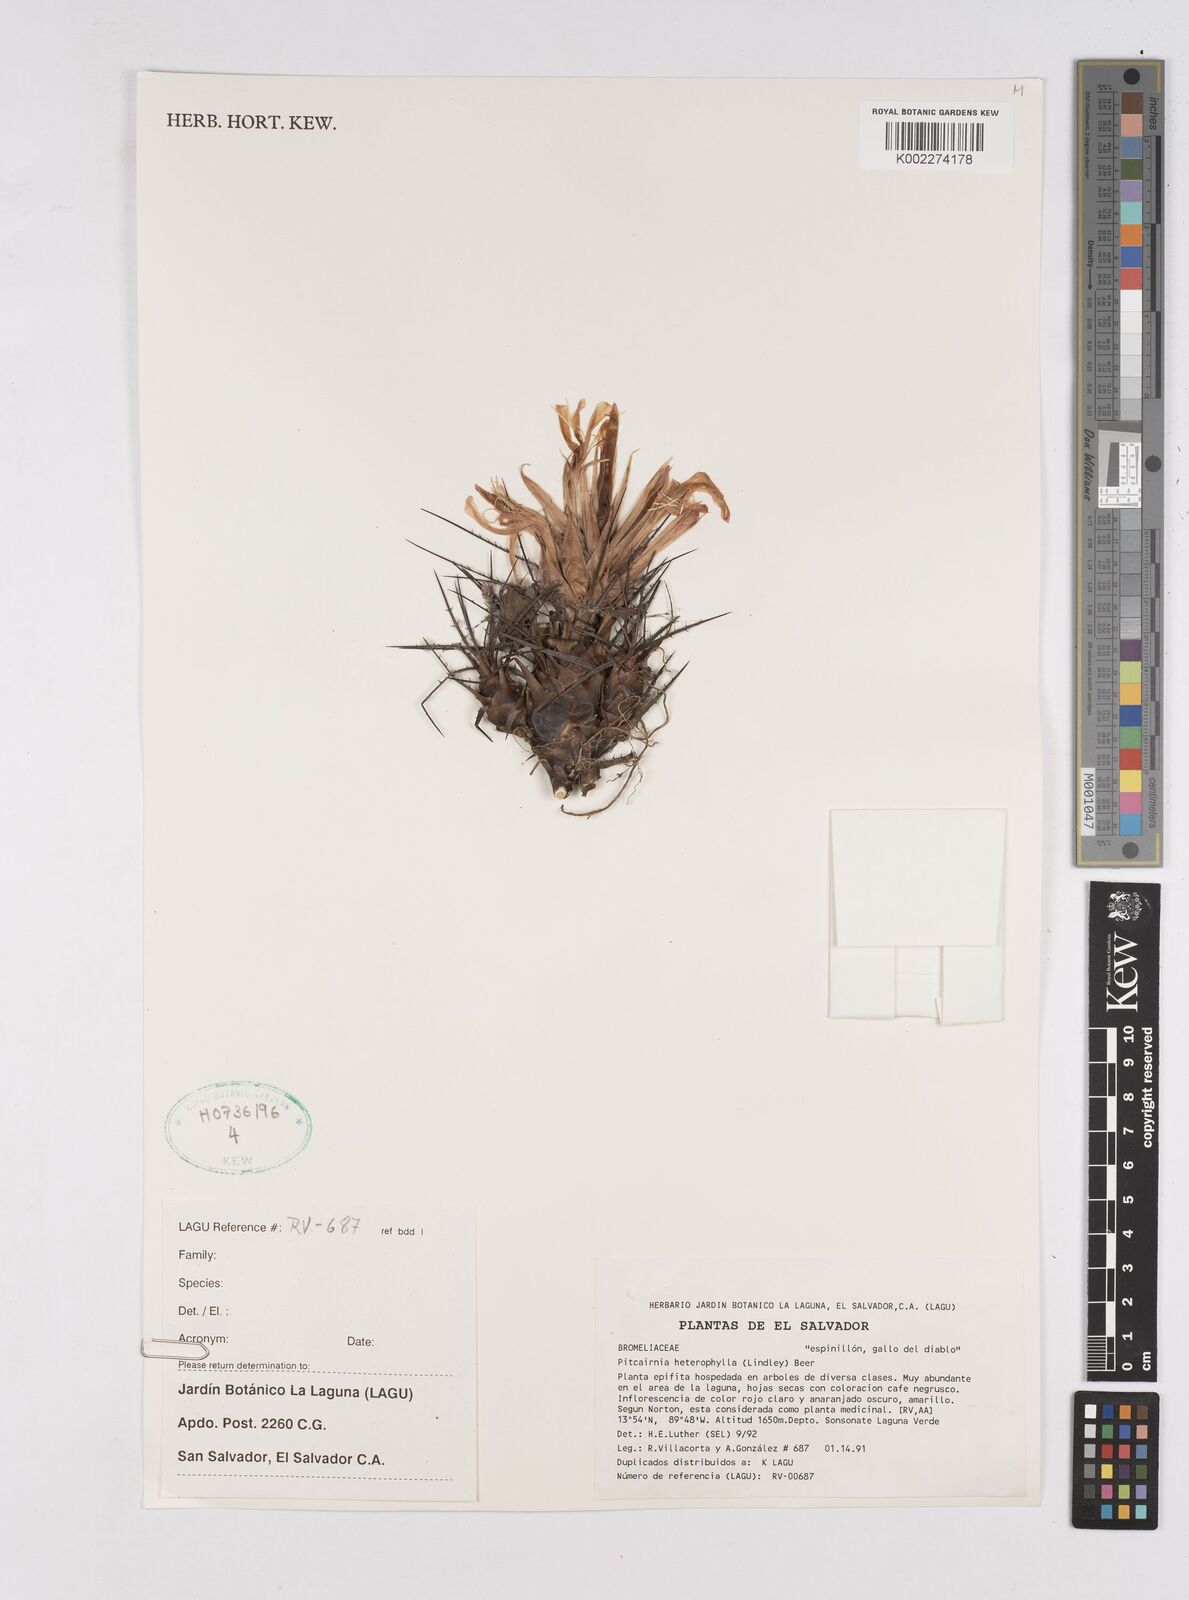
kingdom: Plantae
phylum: Tracheophyta
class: Liliopsida
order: Poales
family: Bromeliaceae
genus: Pitcairnia
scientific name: Pitcairnia heterophylla
